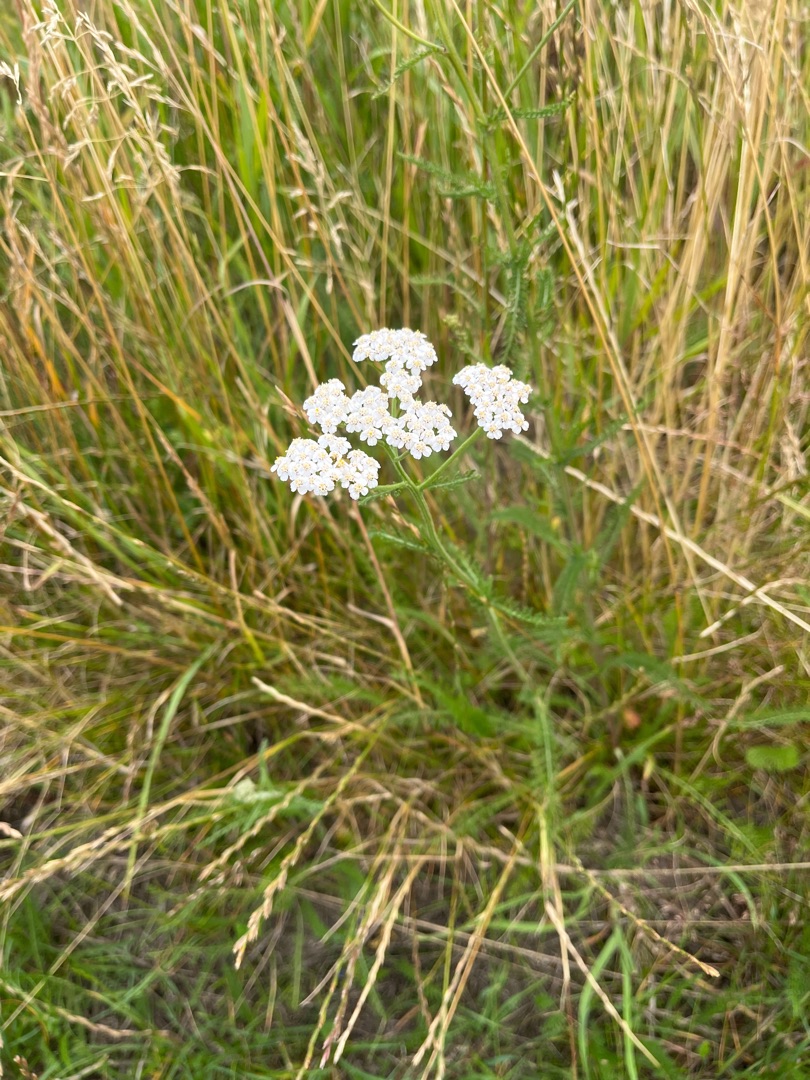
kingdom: Plantae
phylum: Tracheophyta
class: Magnoliopsida
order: Asterales
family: Asteraceae
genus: Achillea
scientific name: Achillea millefolium
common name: Almindelig røllike
